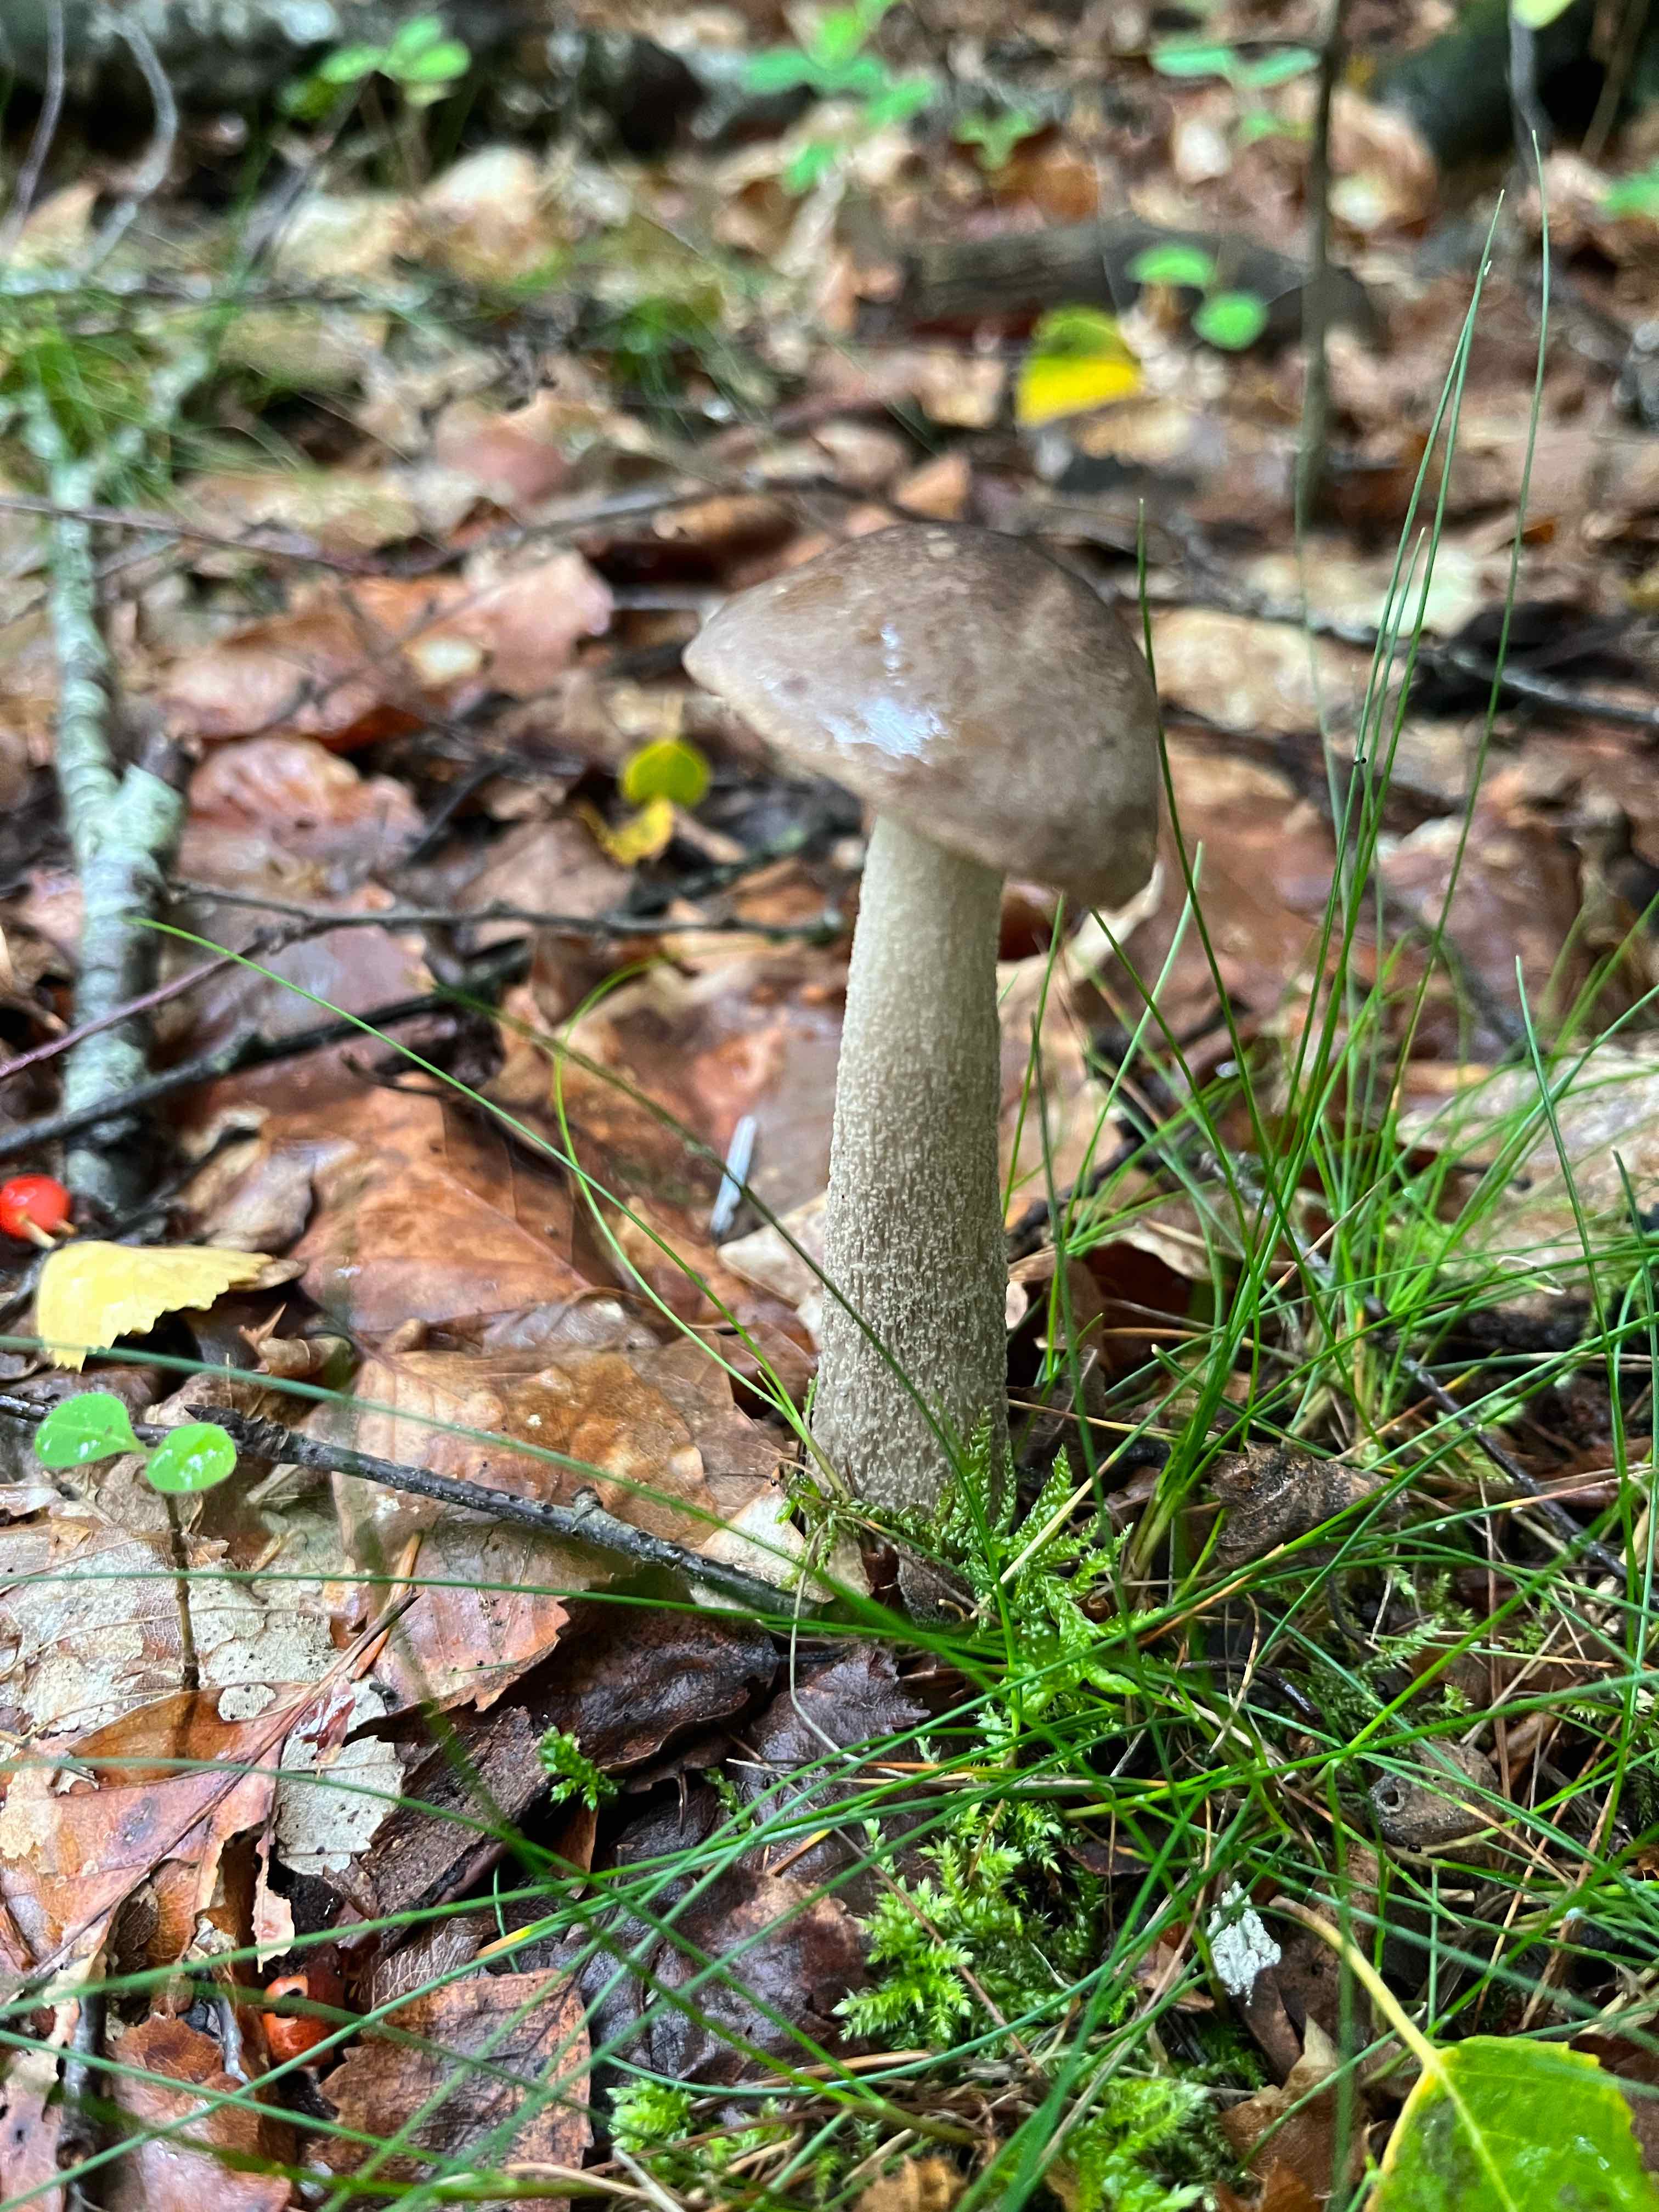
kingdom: Fungi
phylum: Basidiomycota
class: Agaricomycetes
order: Boletales
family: Boletaceae
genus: Leccinum
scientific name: Leccinum cyaneobasileucum
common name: almindelig skælrørhat
